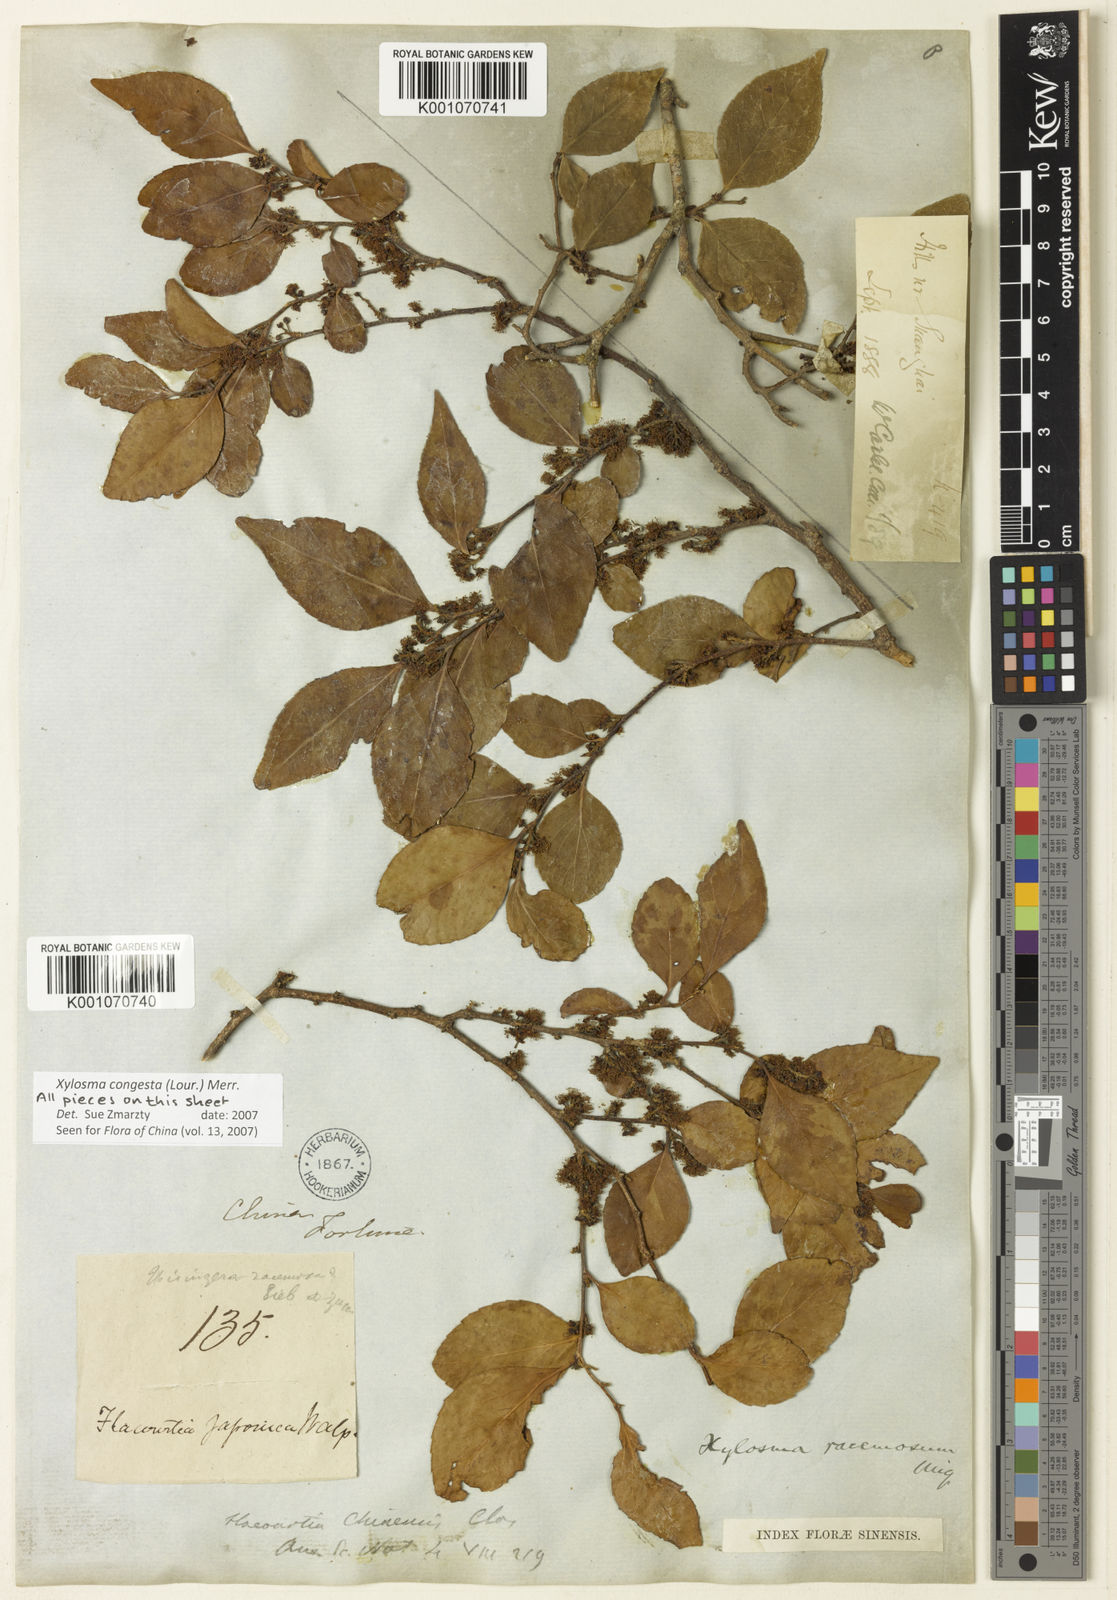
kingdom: Plantae
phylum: Tracheophyta
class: Magnoliopsida
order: Malpighiales
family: Salicaceae
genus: Xylosma
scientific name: Xylosma racemosum
